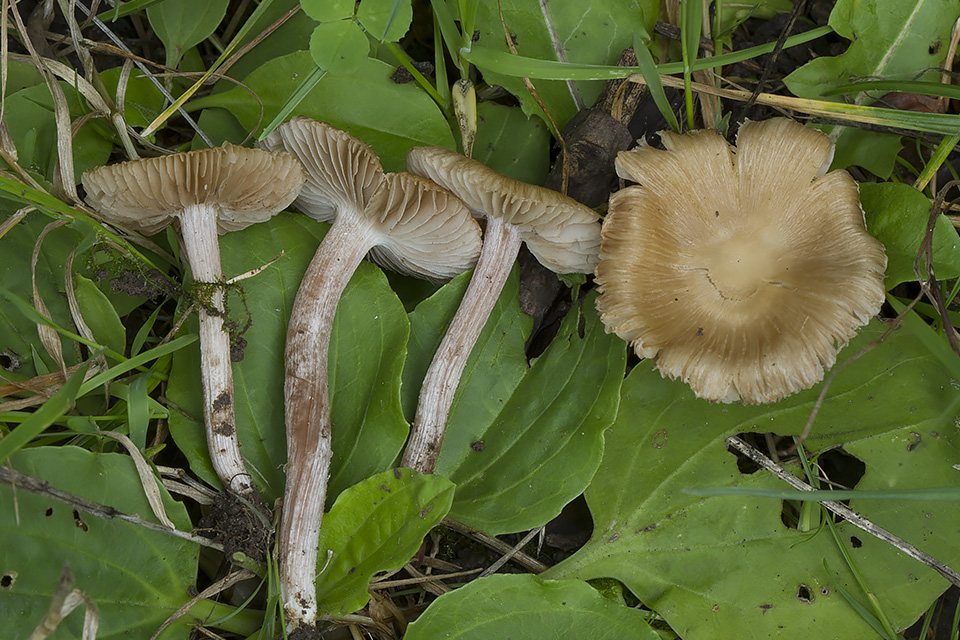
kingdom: Fungi
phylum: Basidiomycota
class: Agaricomycetes
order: Agaricales
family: Inocybaceae
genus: Inocybe
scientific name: Inocybe
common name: trævlhat
